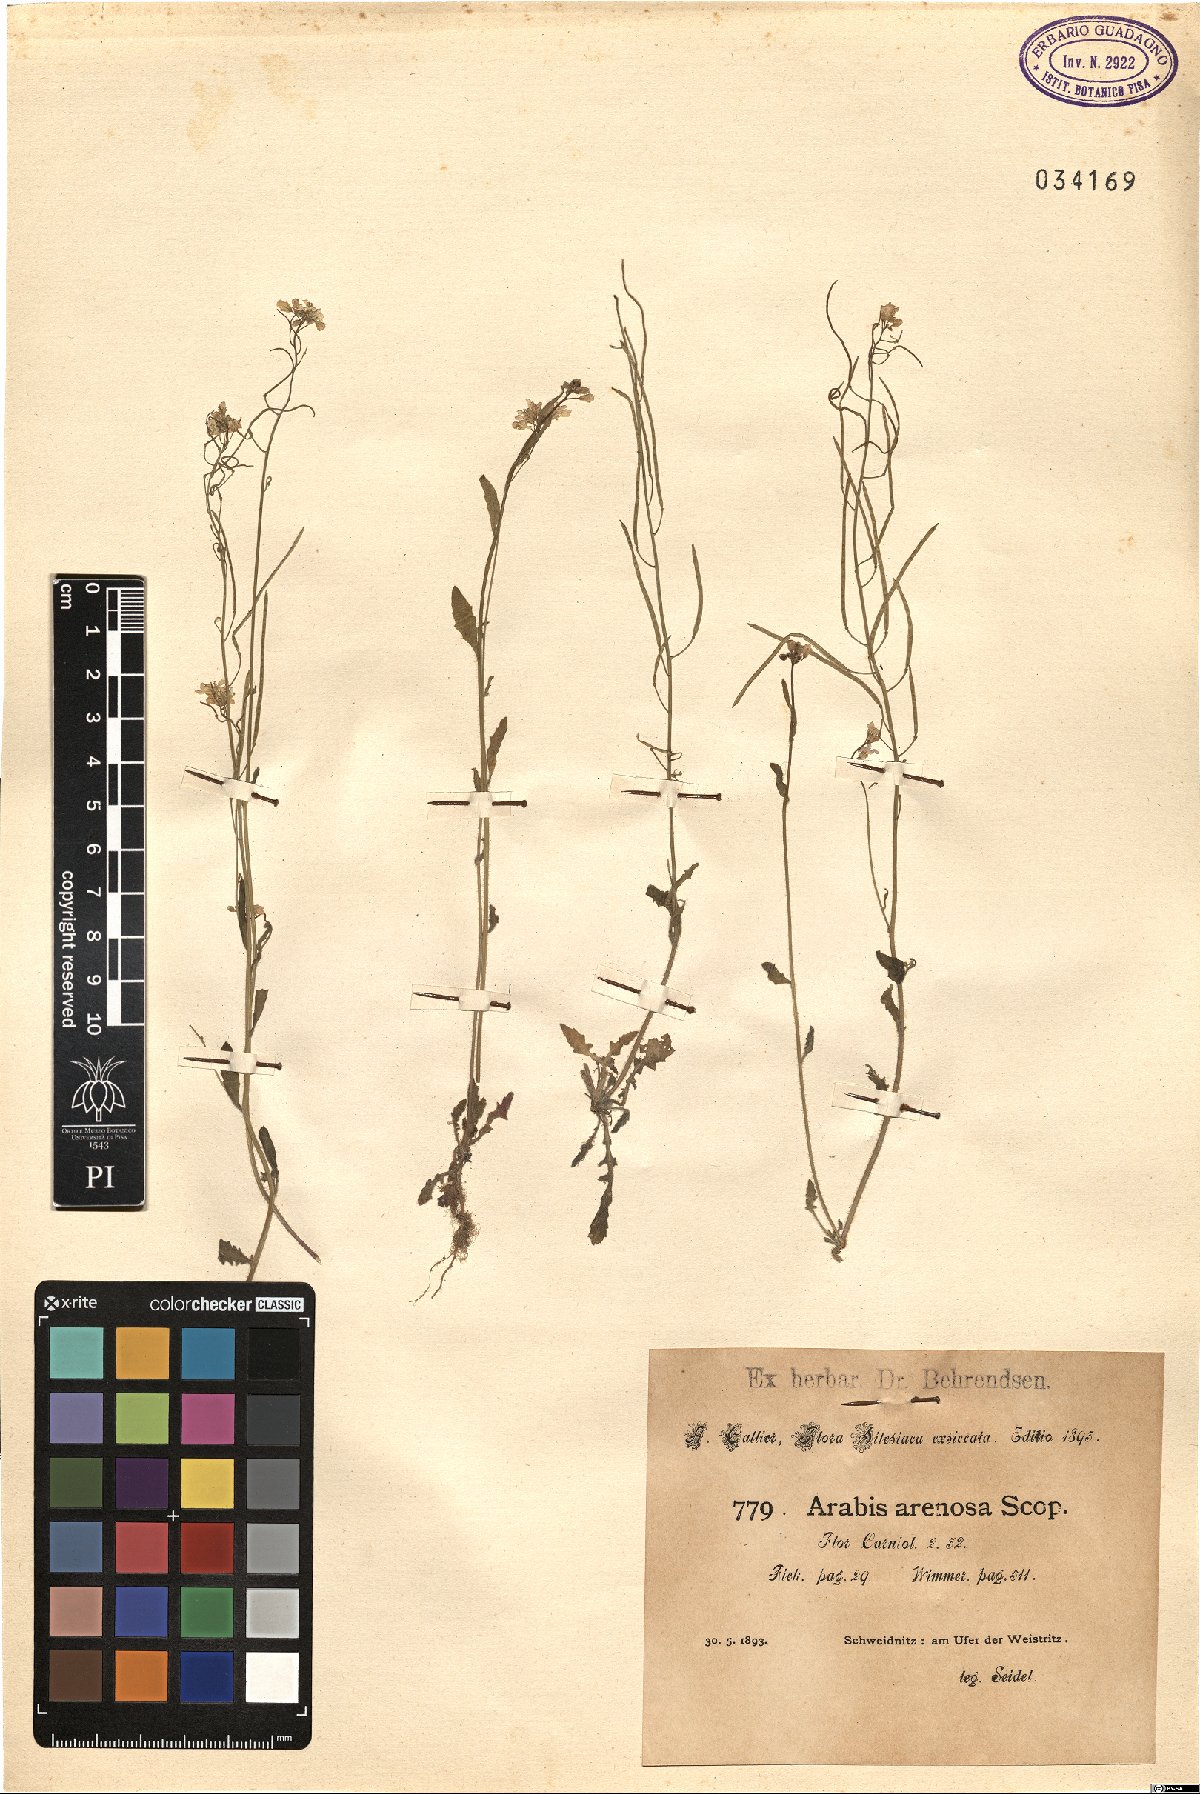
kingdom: Plantae
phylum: Tracheophyta
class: Magnoliopsida
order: Brassicales
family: Brassicaceae
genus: Arabidopsis
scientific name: Arabidopsis arenosa
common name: Sand rock-cress
